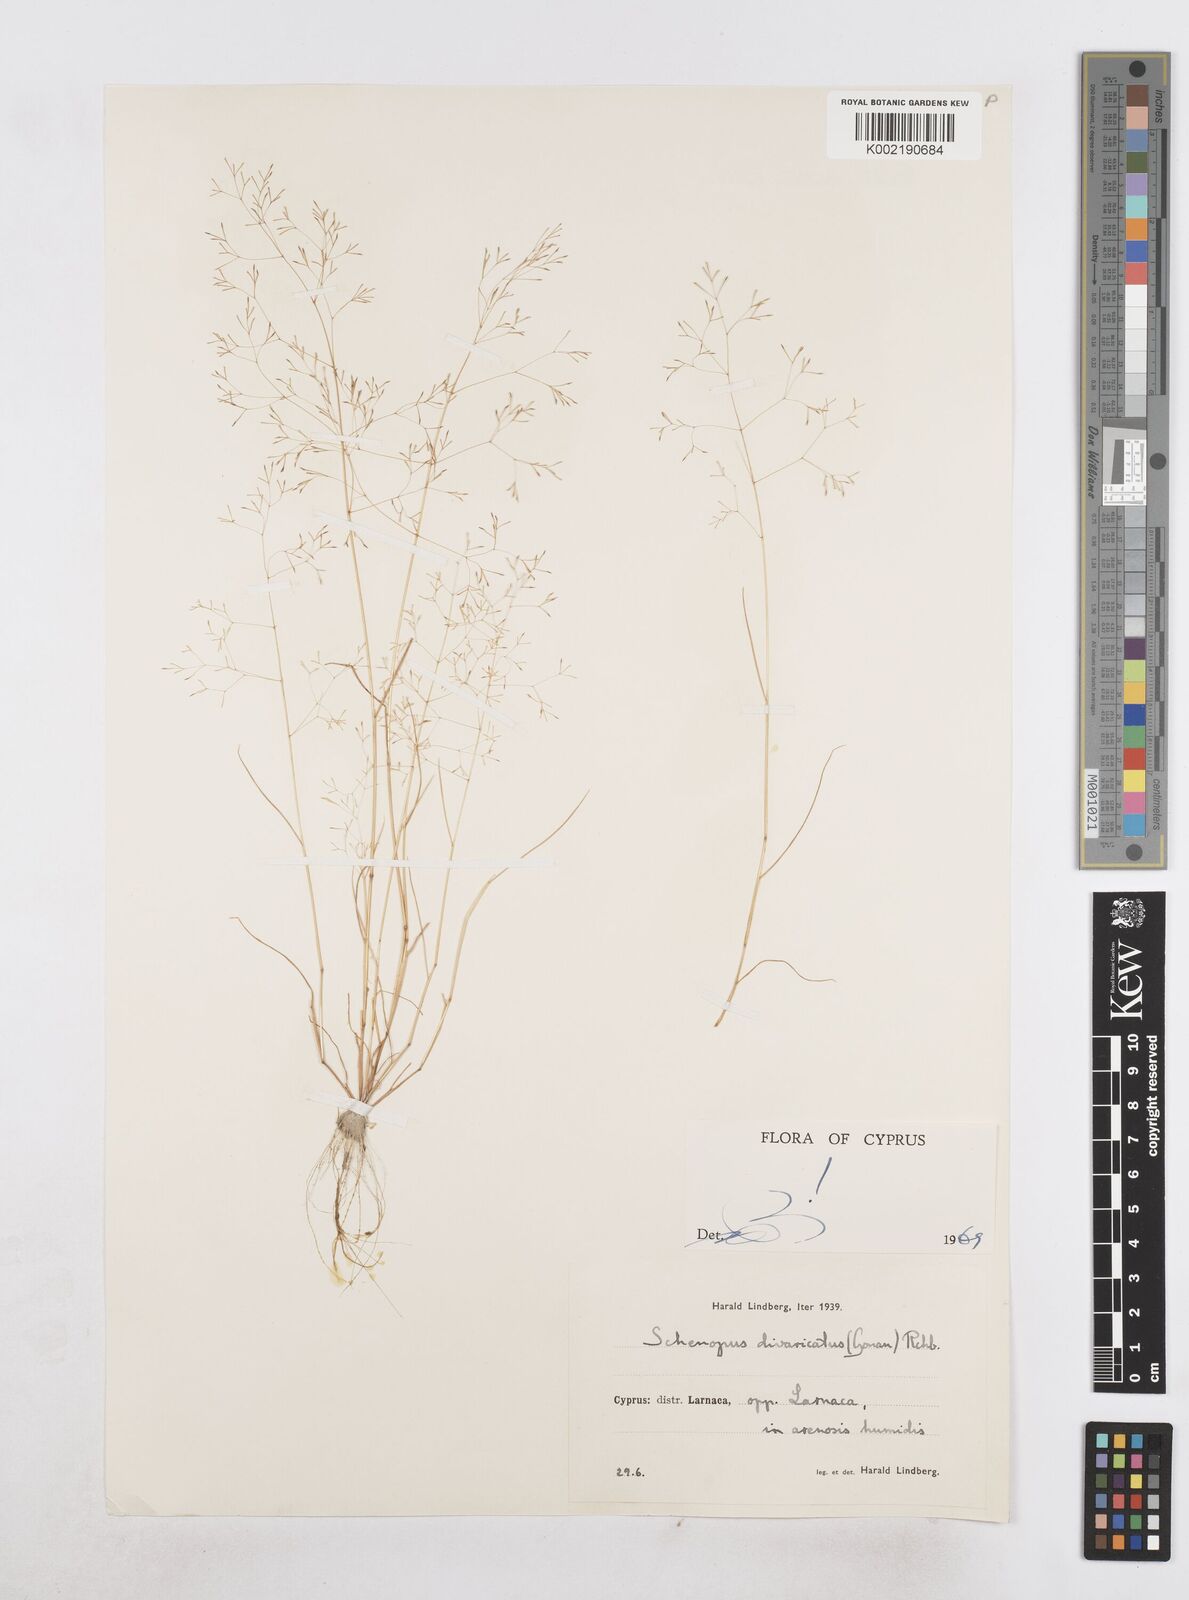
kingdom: Plantae
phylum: Tracheophyta
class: Liliopsida
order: Poales
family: Poaceae
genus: Sphenopus
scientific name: Sphenopus divaricatus
